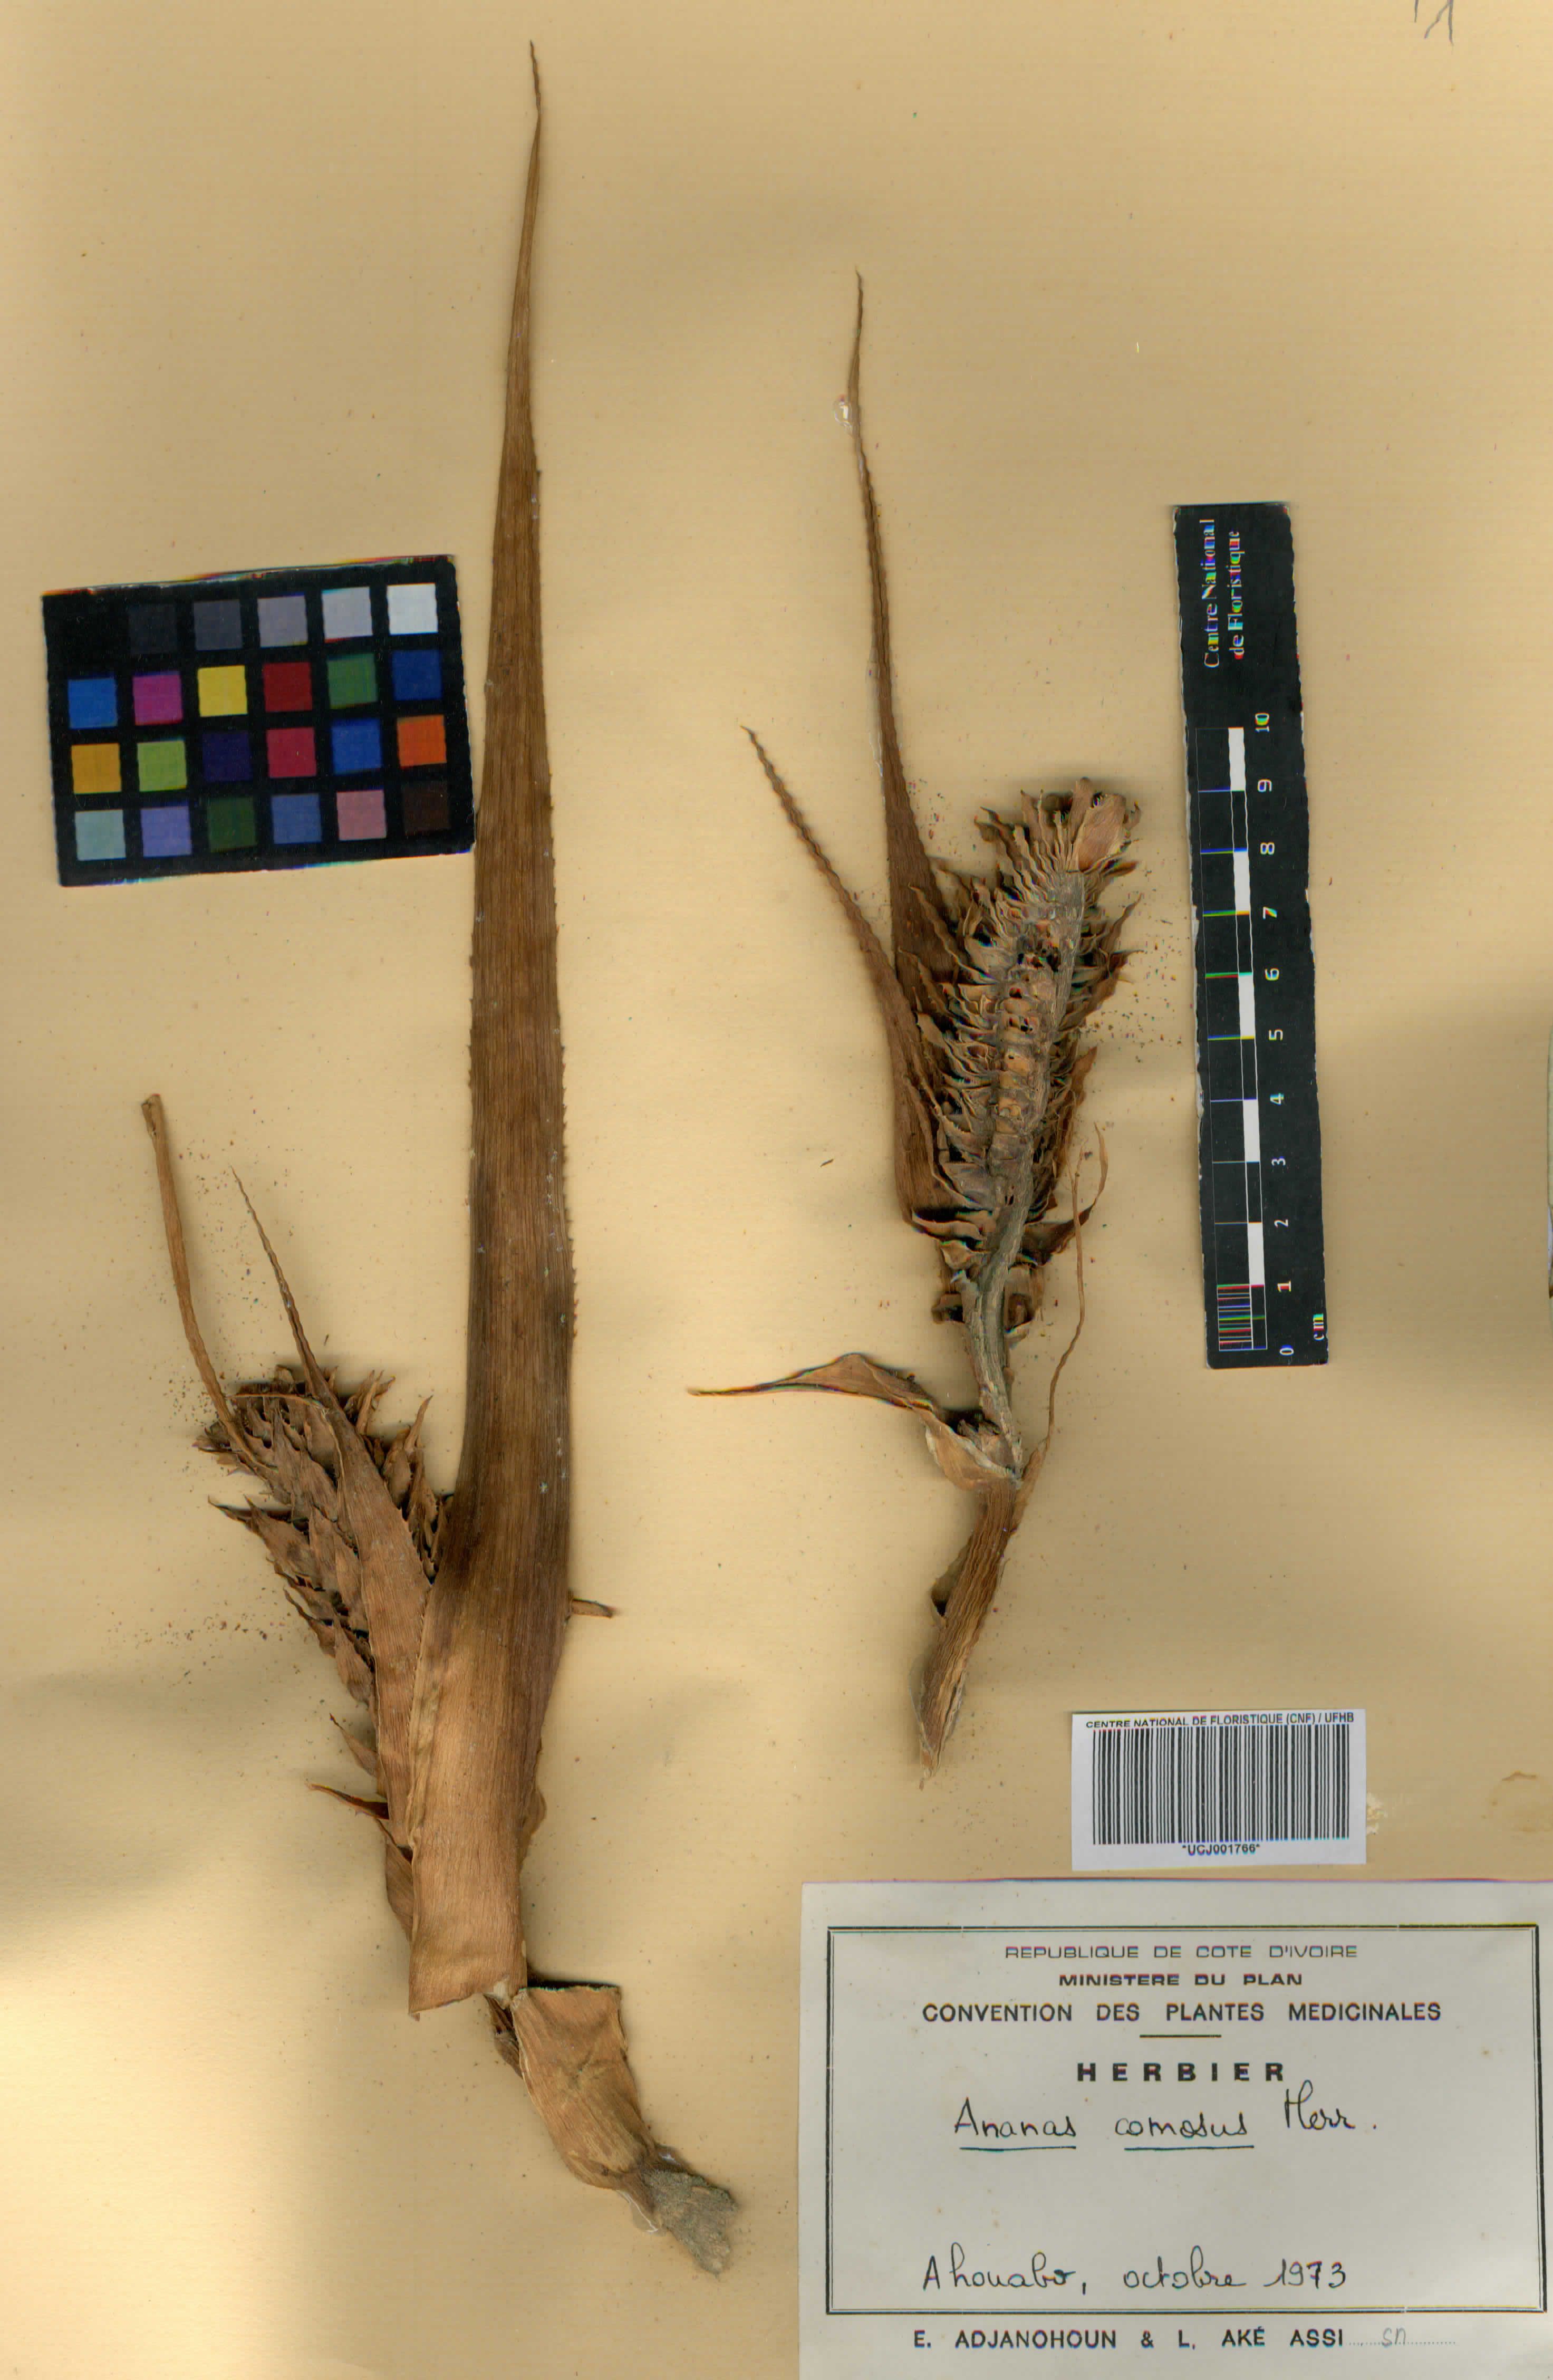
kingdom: Plantae
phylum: Tracheophyta
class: Liliopsida
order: Poales
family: Bromeliaceae
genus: Ananas
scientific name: Ananas comosus
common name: Pineapple
